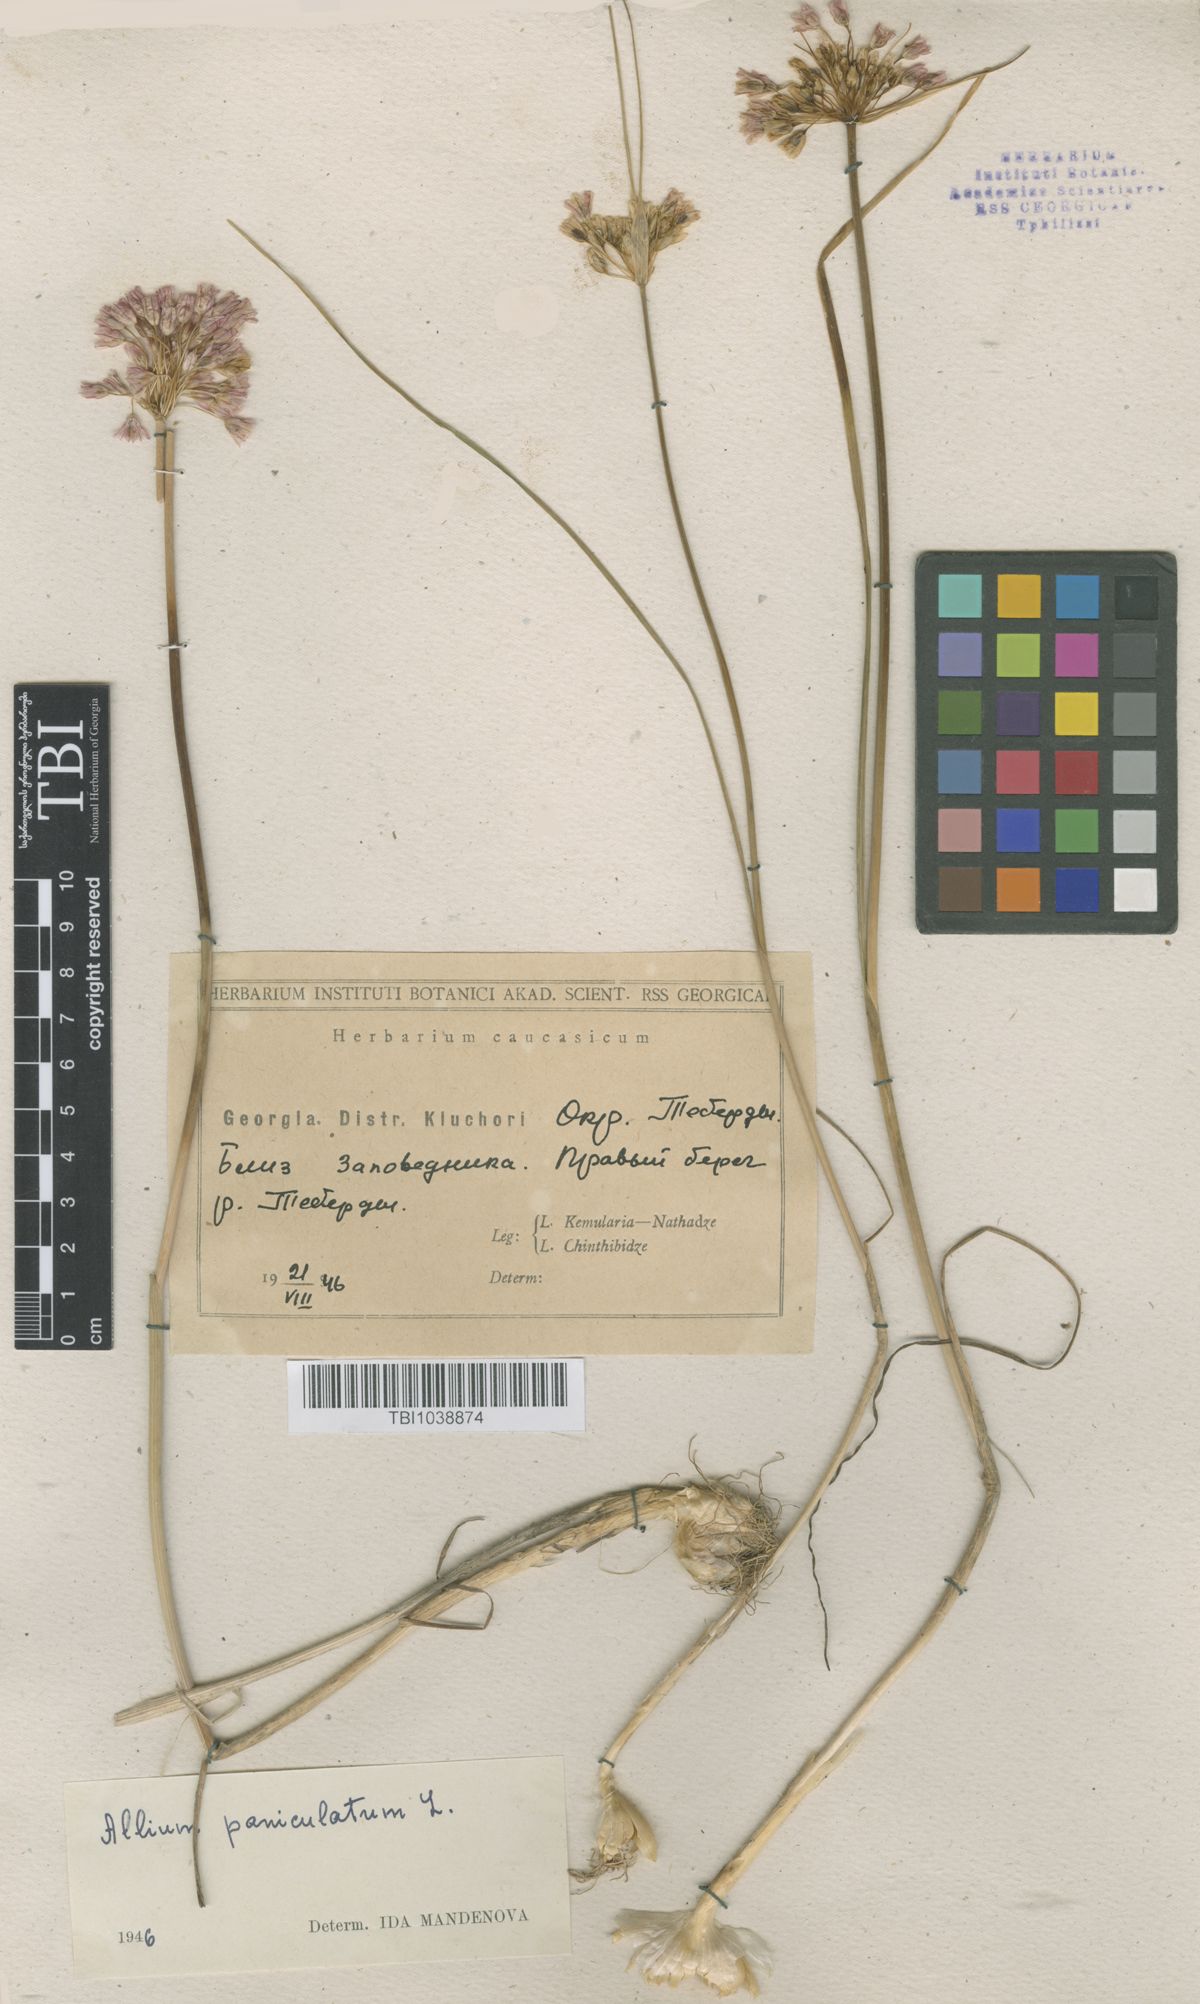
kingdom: Plantae
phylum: Tracheophyta
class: Liliopsida
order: Asparagales
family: Amaryllidaceae
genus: Allium
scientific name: Allium paniculatum
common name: Pale garlic
